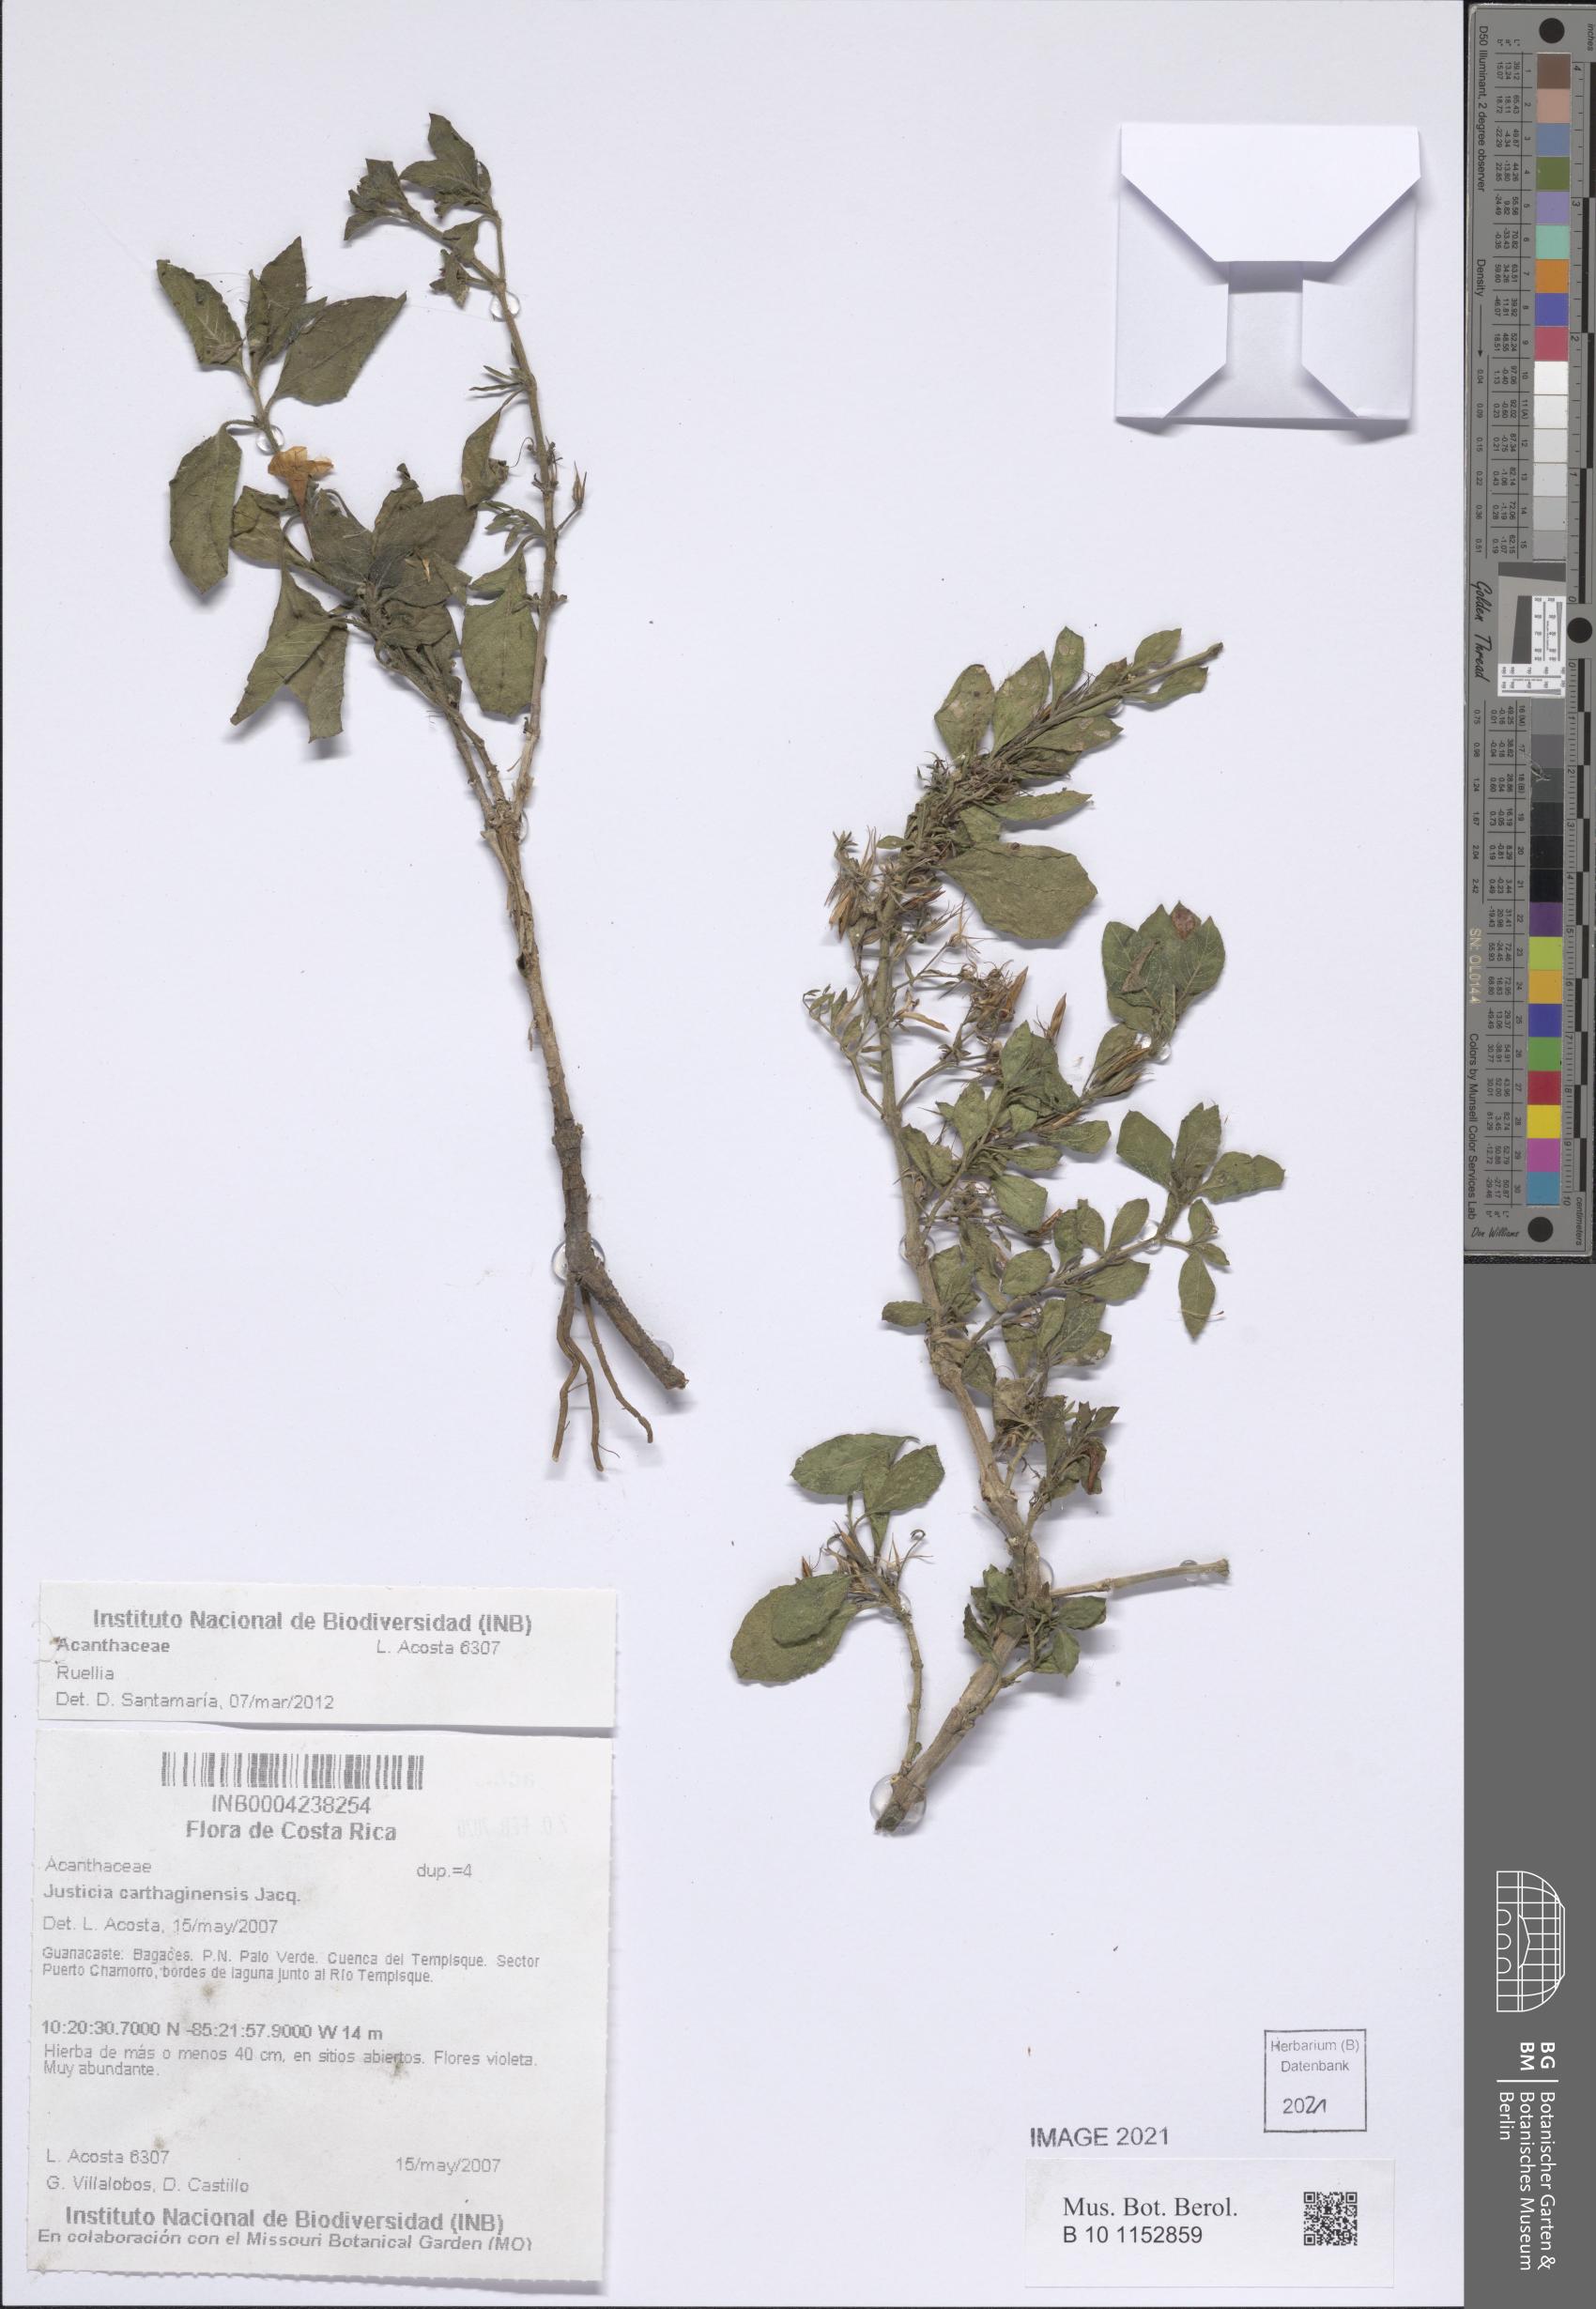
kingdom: Plantae
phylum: Tracheophyta
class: Magnoliopsida
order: Lamiales
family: Acanthaceae
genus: Ruellia
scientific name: Ruellia
